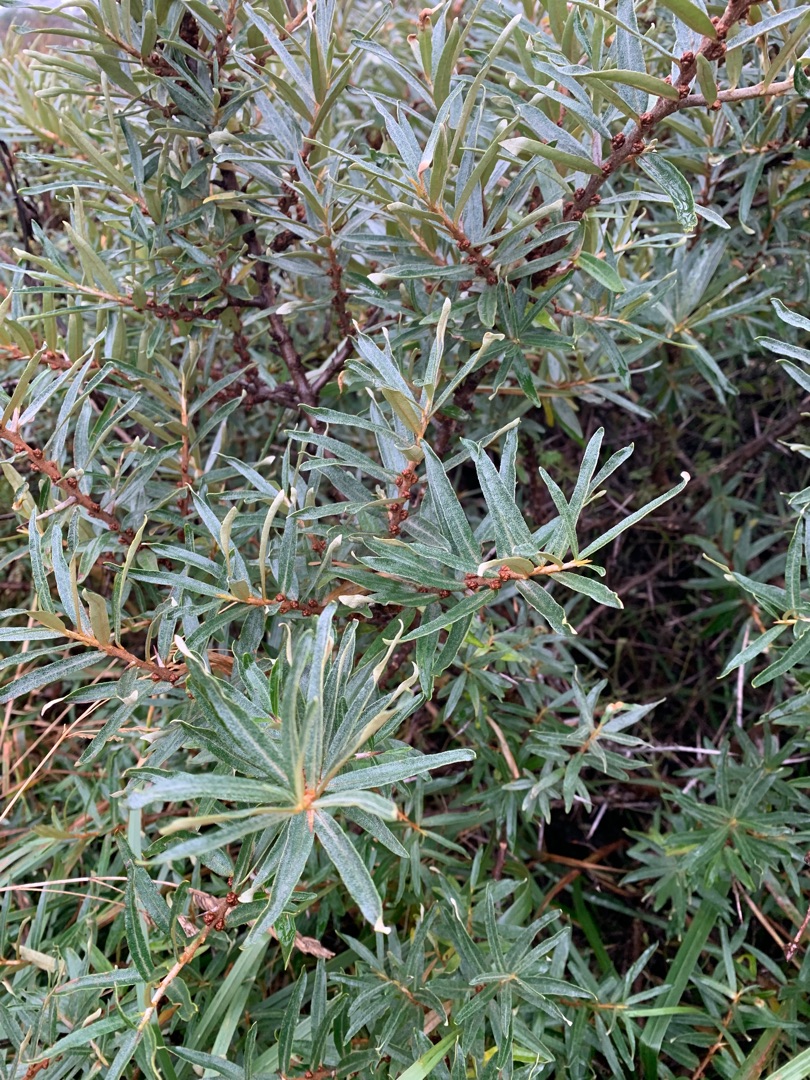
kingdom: Plantae
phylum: Tracheophyta
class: Magnoliopsida
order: Rosales
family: Elaeagnaceae
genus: Hippophae
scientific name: Hippophae rhamnoides
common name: Havtorn
